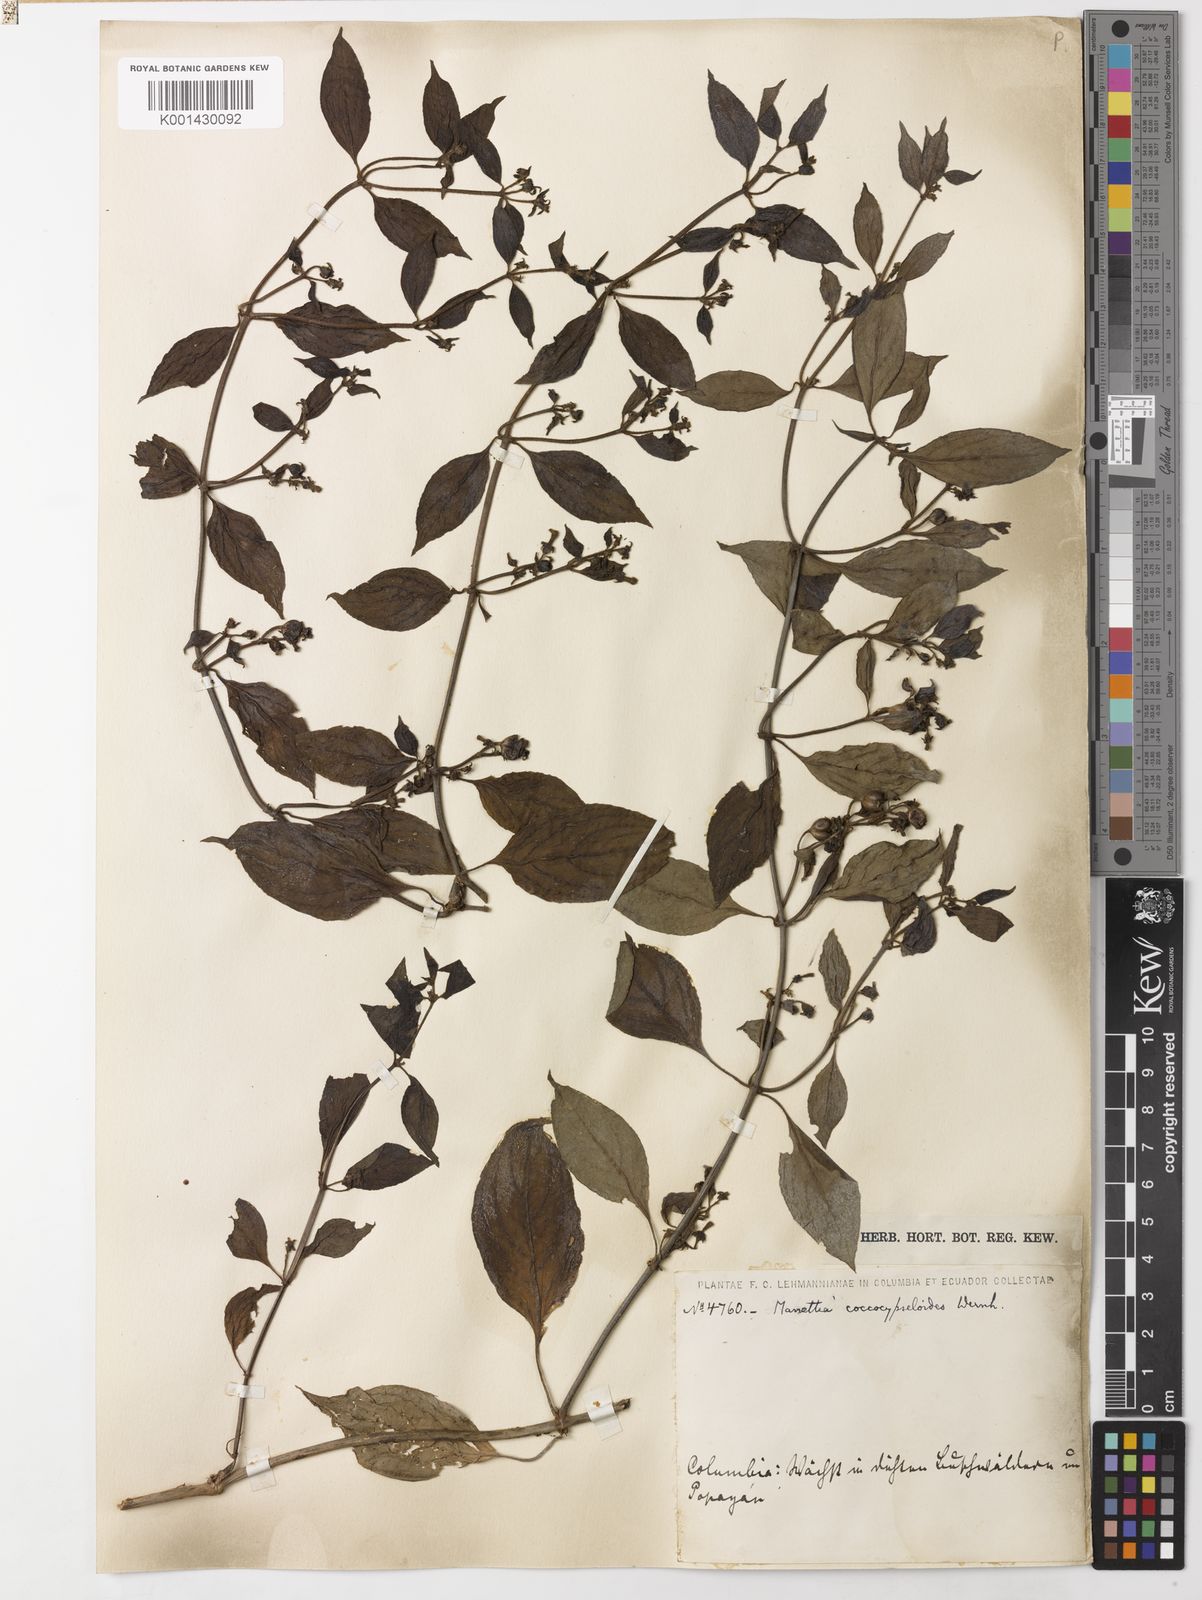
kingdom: Plantae
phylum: Tracheophyta
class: Magnoliopsida
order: Gentianales
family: Rubiaceae
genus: Manettia
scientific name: Manettia coccocypseloides
